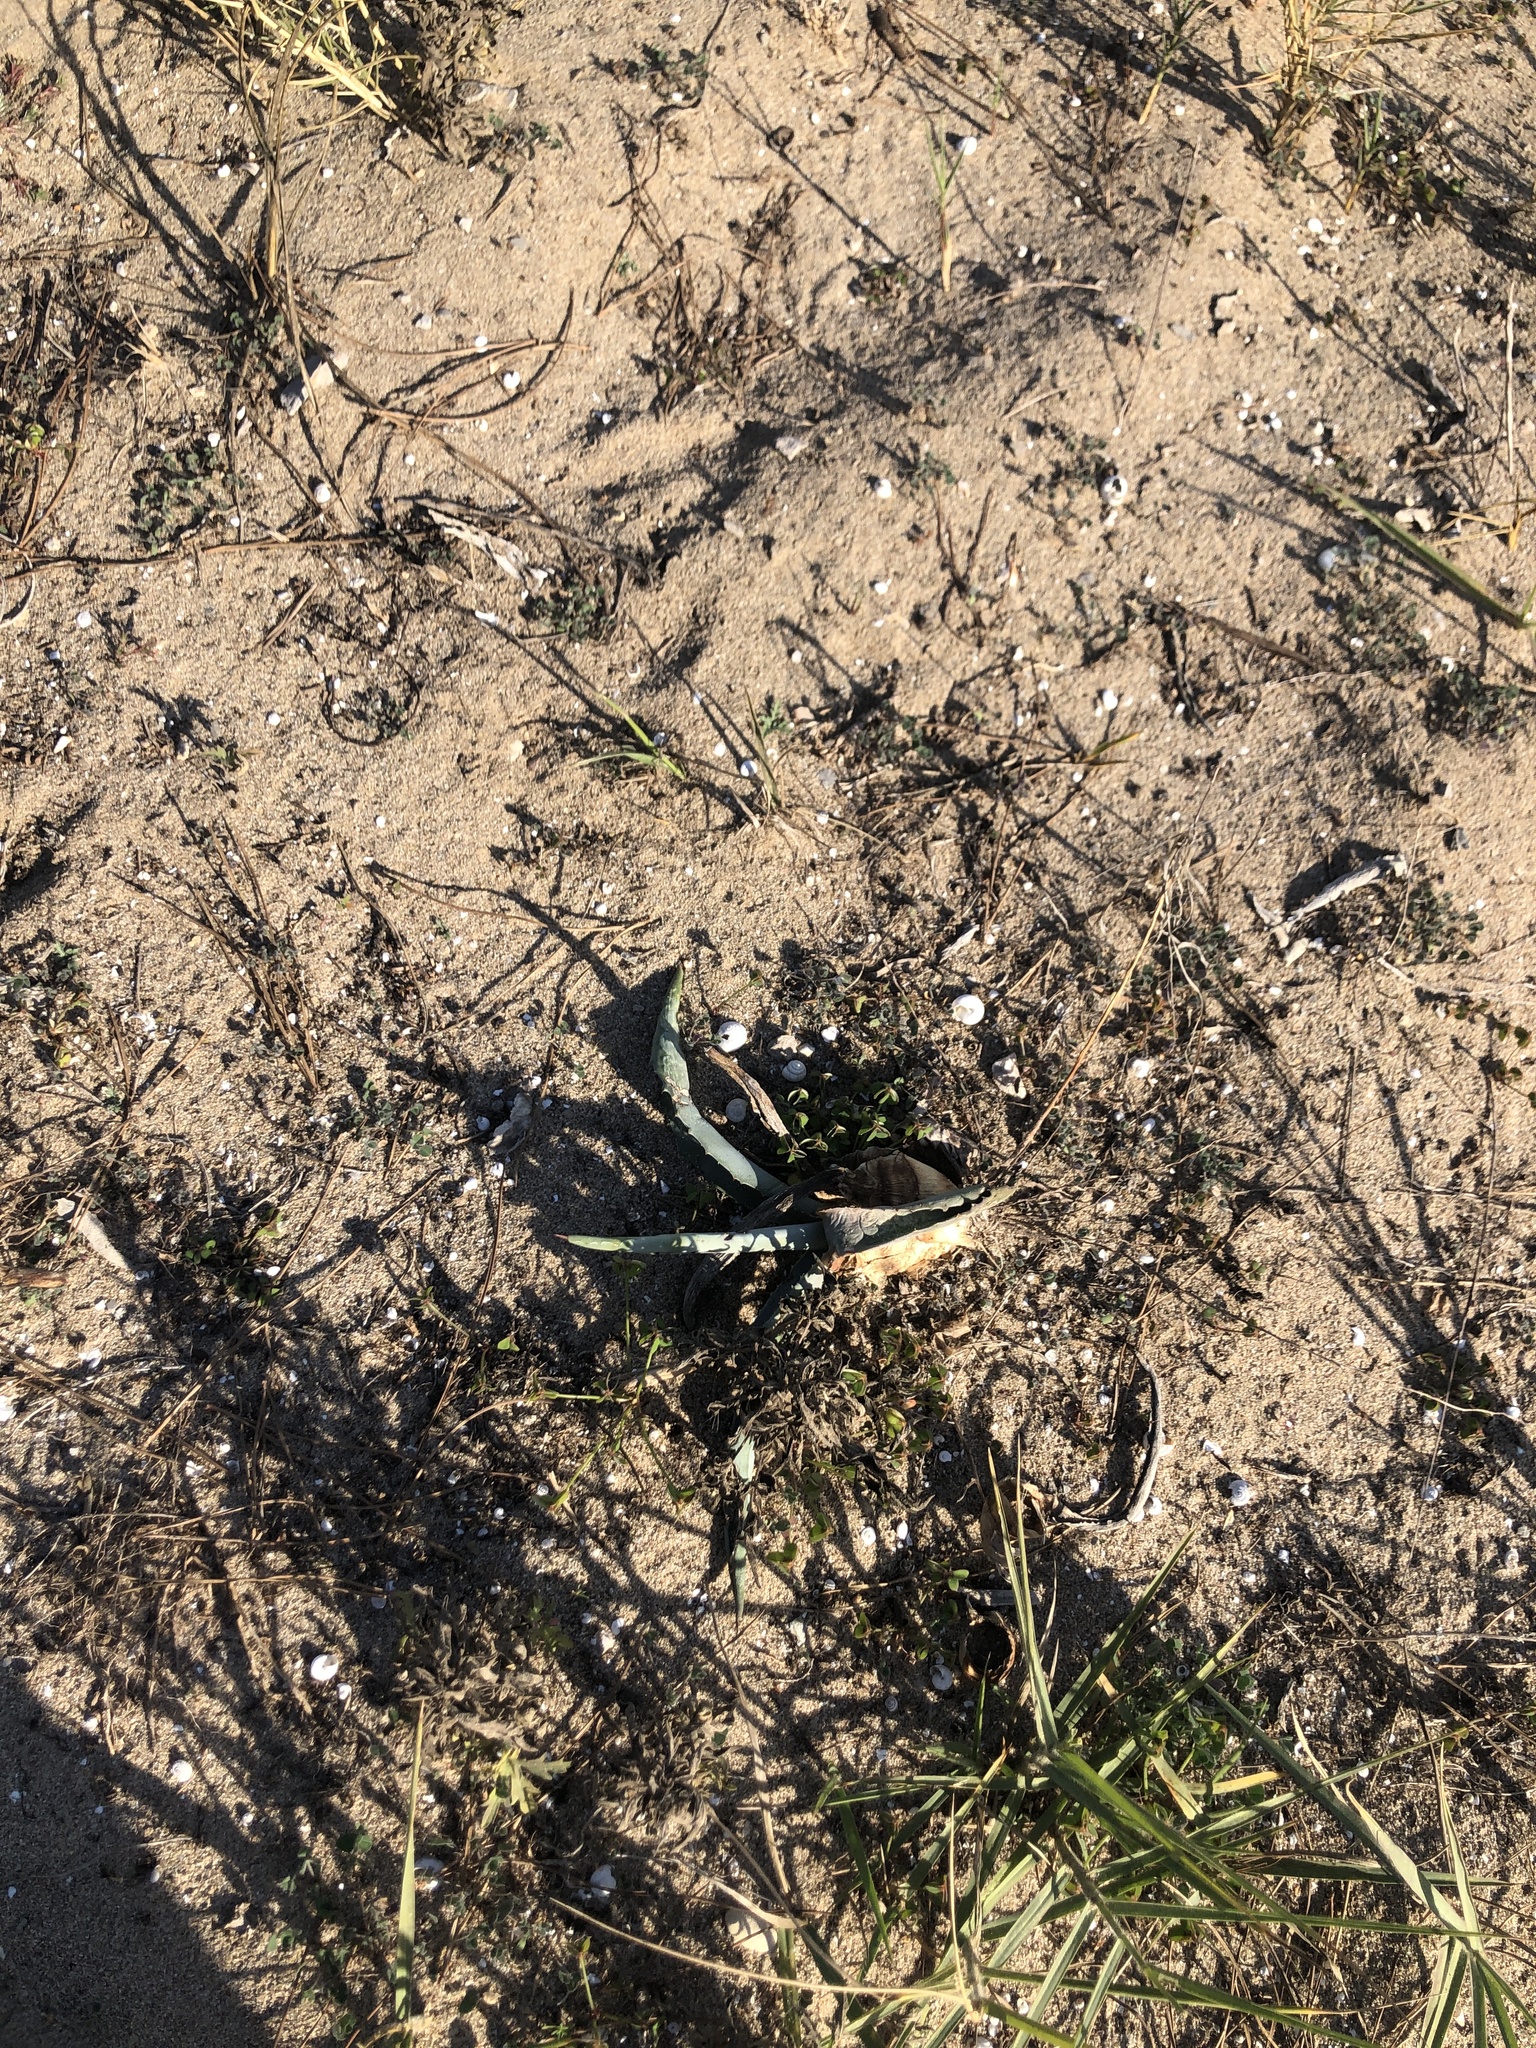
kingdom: Plantae
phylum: Tracheophyta
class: Liliopsida
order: Asparagales
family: Asparagaceae
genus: Agave
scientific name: Agave americana
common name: Centuryplant
